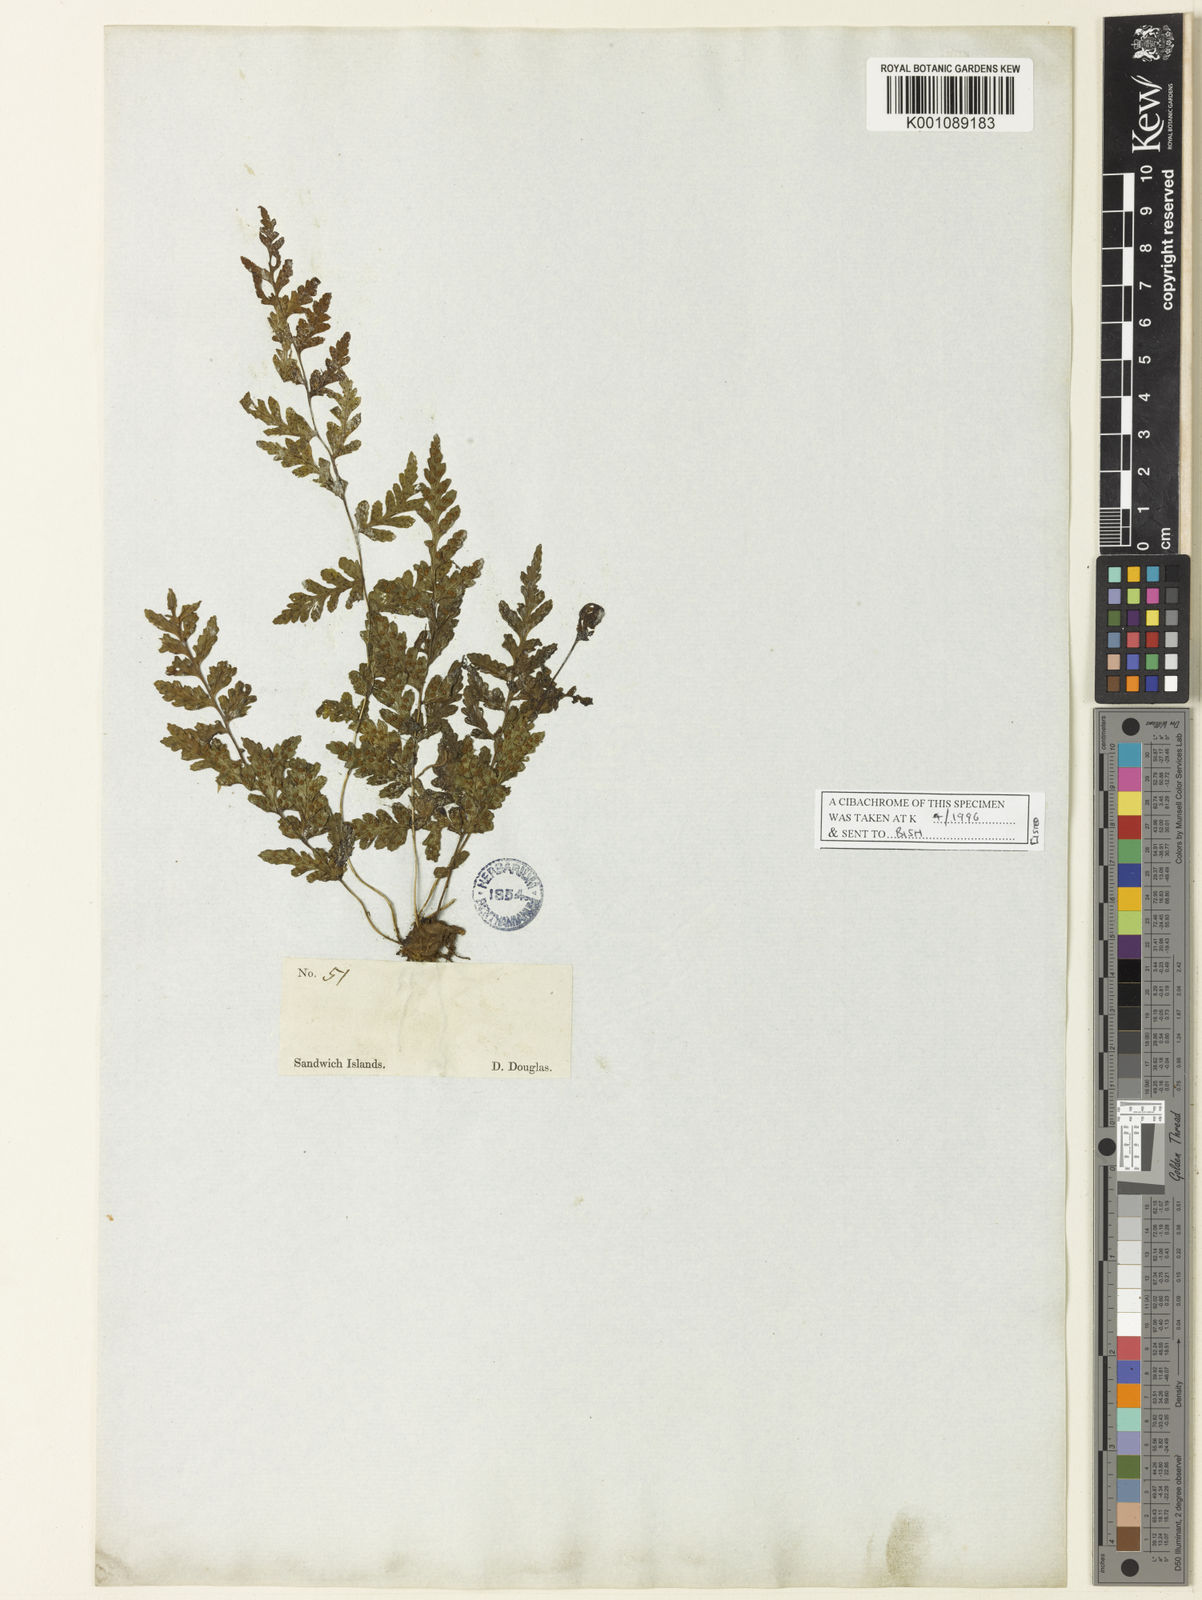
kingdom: Plantae
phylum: Tracheophyta
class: Polypodiopsida
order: Polypodiales
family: Cystopteridaceae
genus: Cystopteris
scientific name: Cystopteris douglasii
